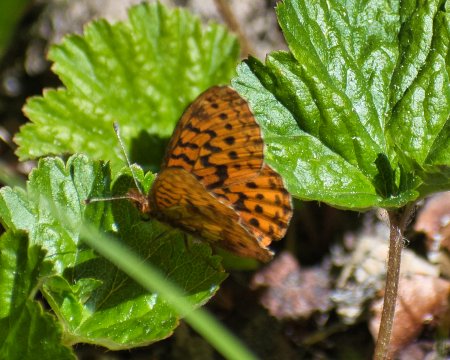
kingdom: Animalia
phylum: Arthropoda
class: Insecta
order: Lepidoptera
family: Nymphalidae
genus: Boloria
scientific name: Boloria epithore
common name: Pacific Fritillary
